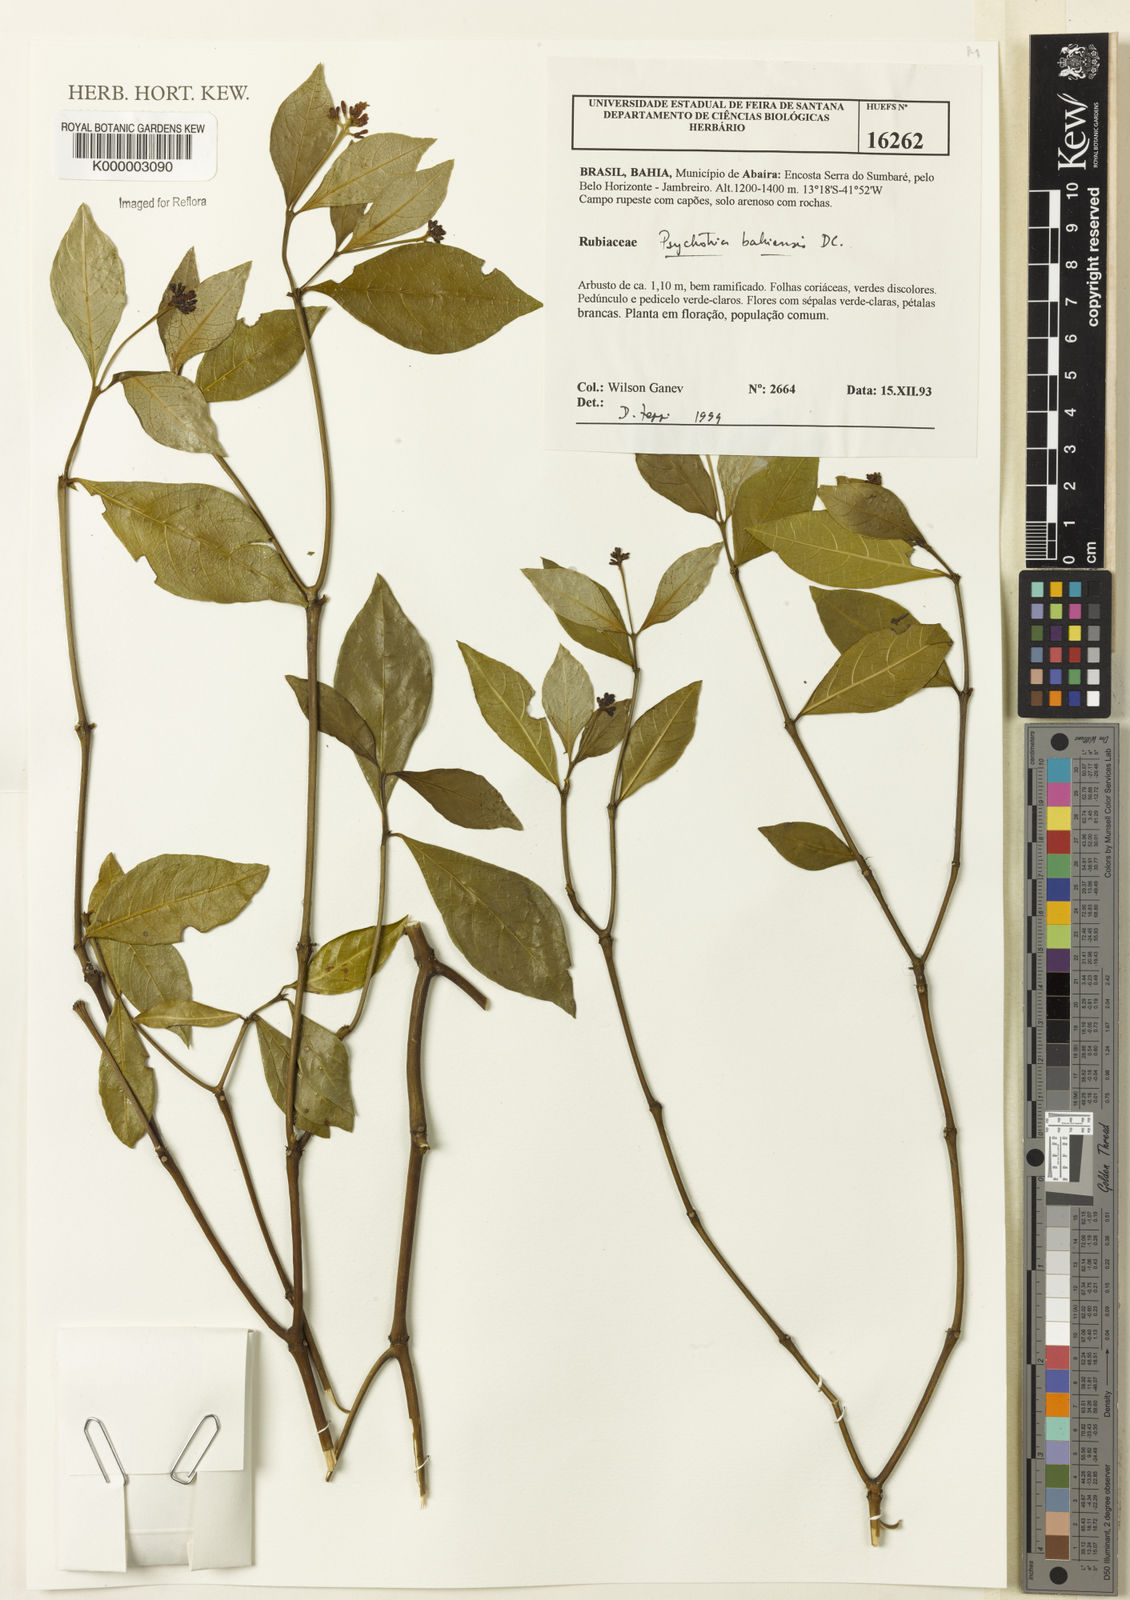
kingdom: Plantae
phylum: Tracheophyta
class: Magnoliopsida
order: Gentianales
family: Rubiaceae
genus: Psychotria
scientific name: Psychotria bahiensis
